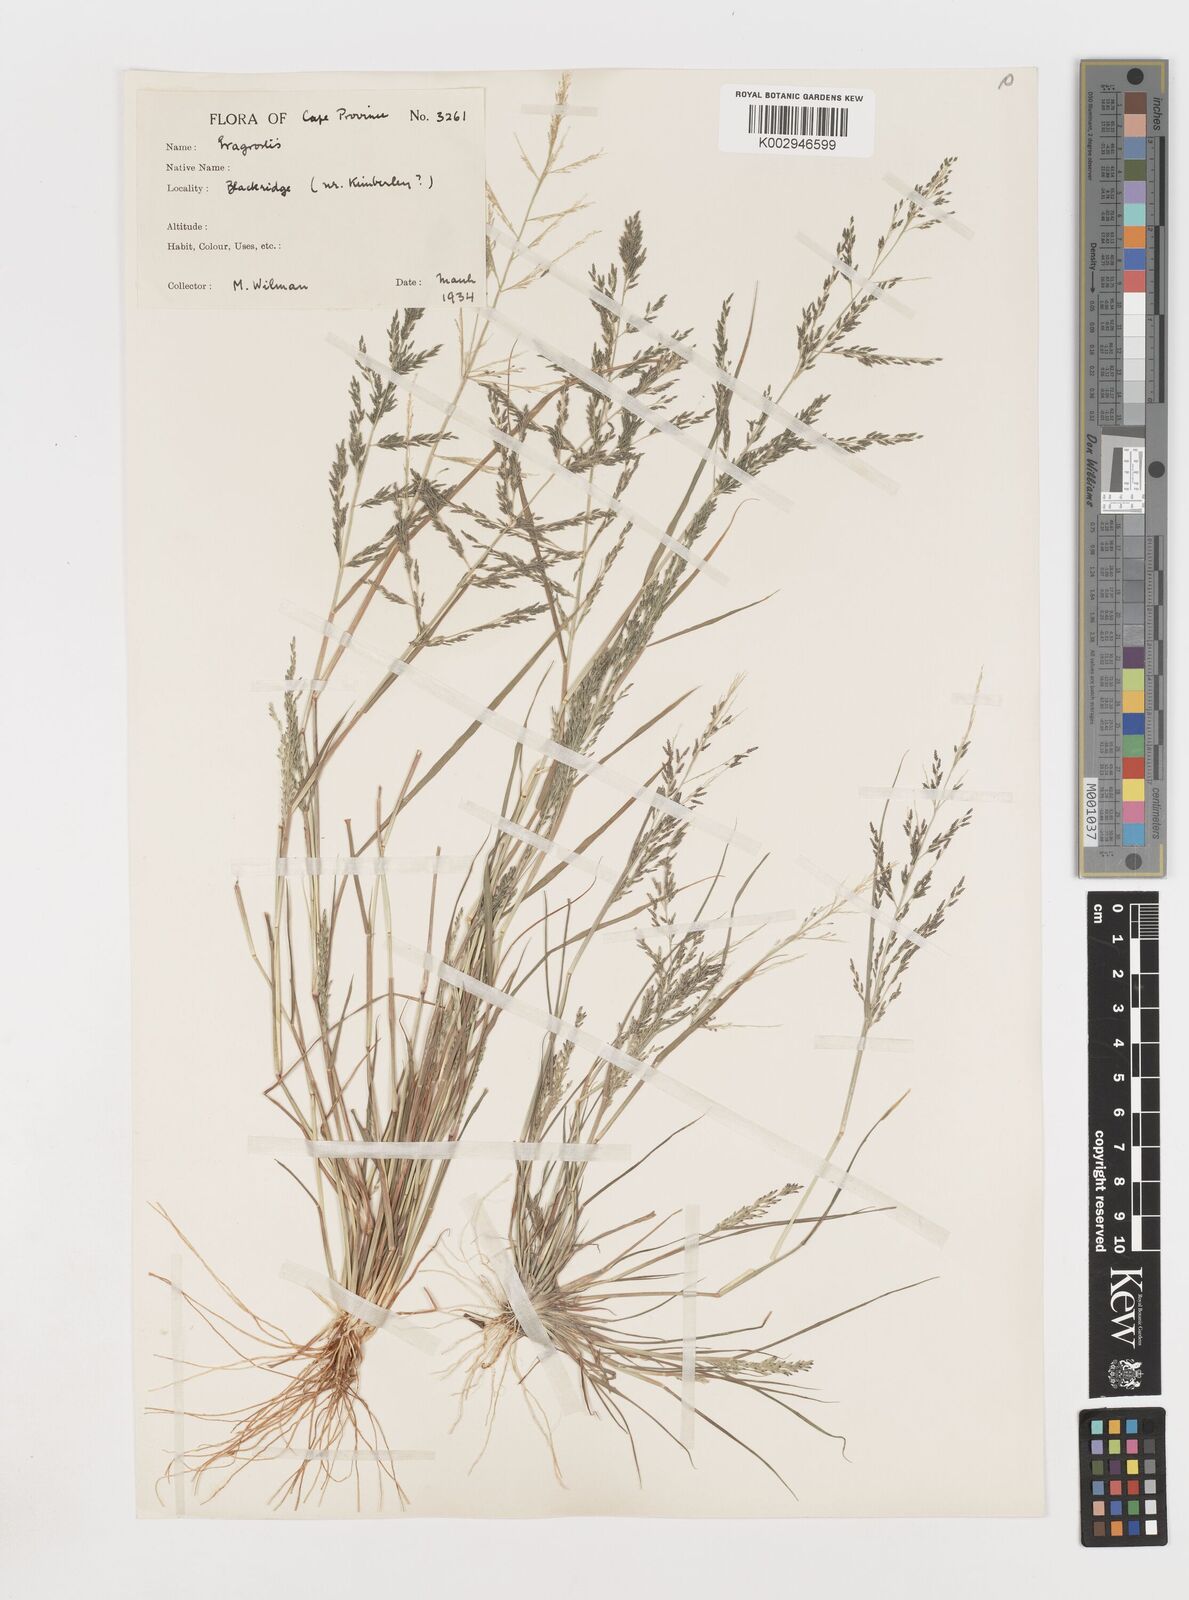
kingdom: Plantae
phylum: Tracheophyta
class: Liliopsida
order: Poales
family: Poaceae
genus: Eragrostis
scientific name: Eragrostis homomalla
